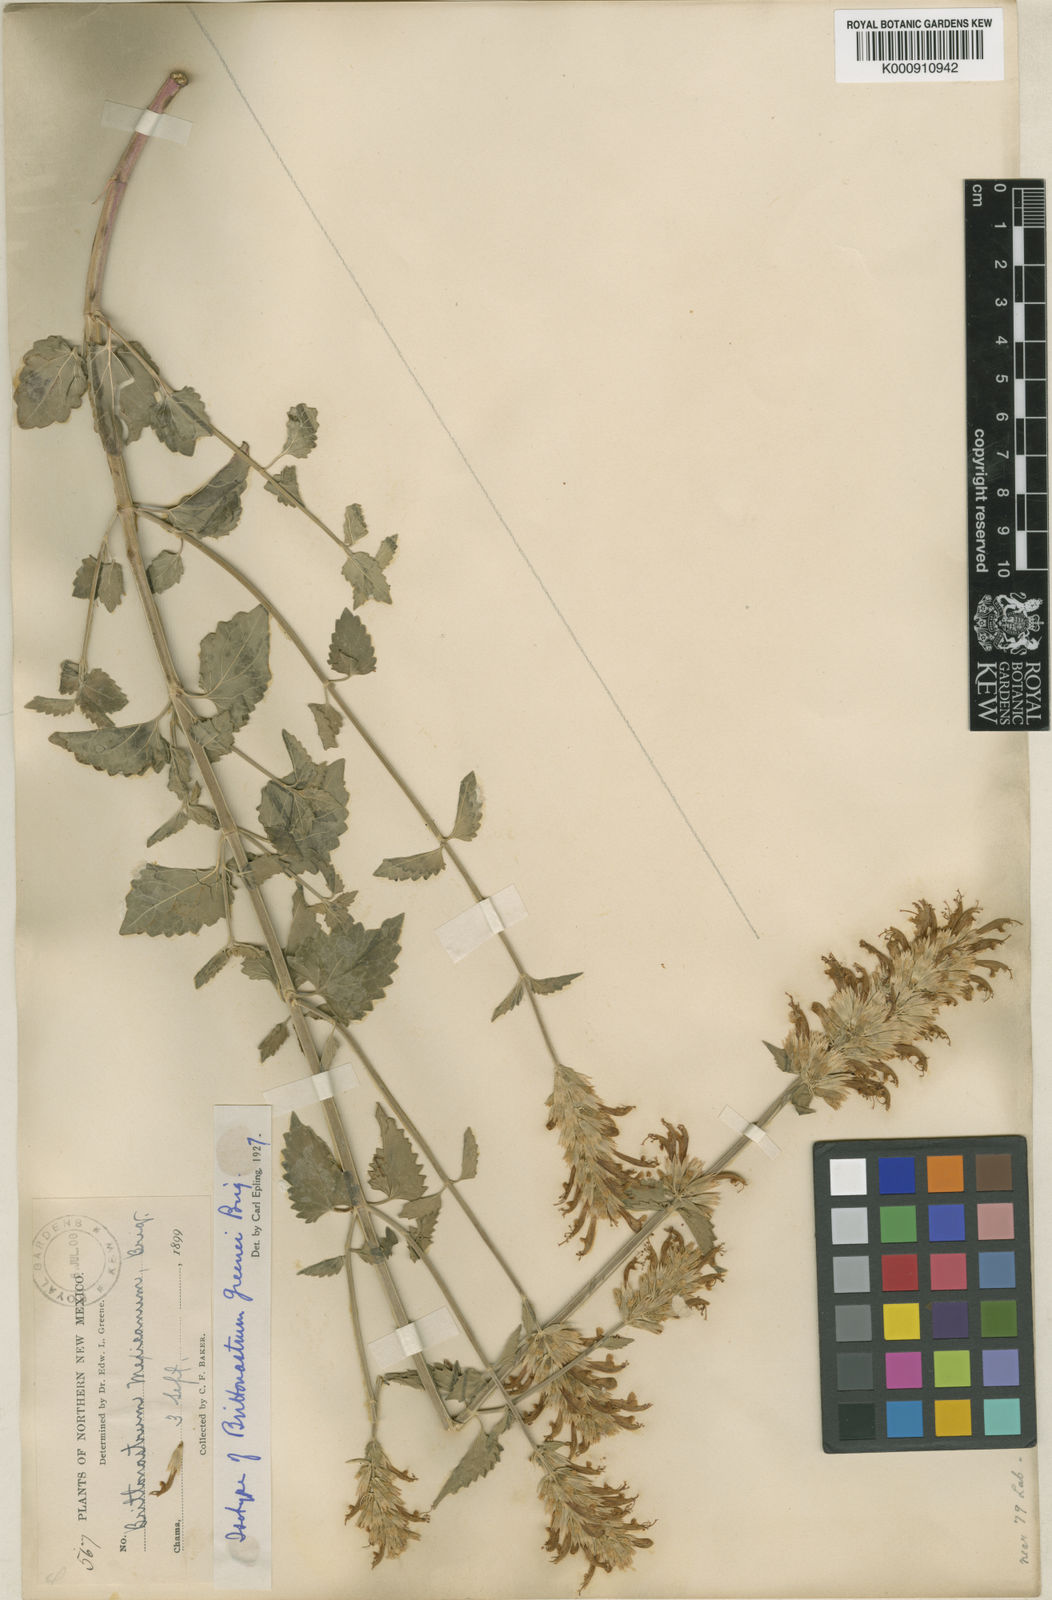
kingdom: Plantae
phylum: Tracheophyta
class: Magnoliopsida
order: Lamiales
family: Lamiaceae
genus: Agastache
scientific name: Agastache pallidiflora
